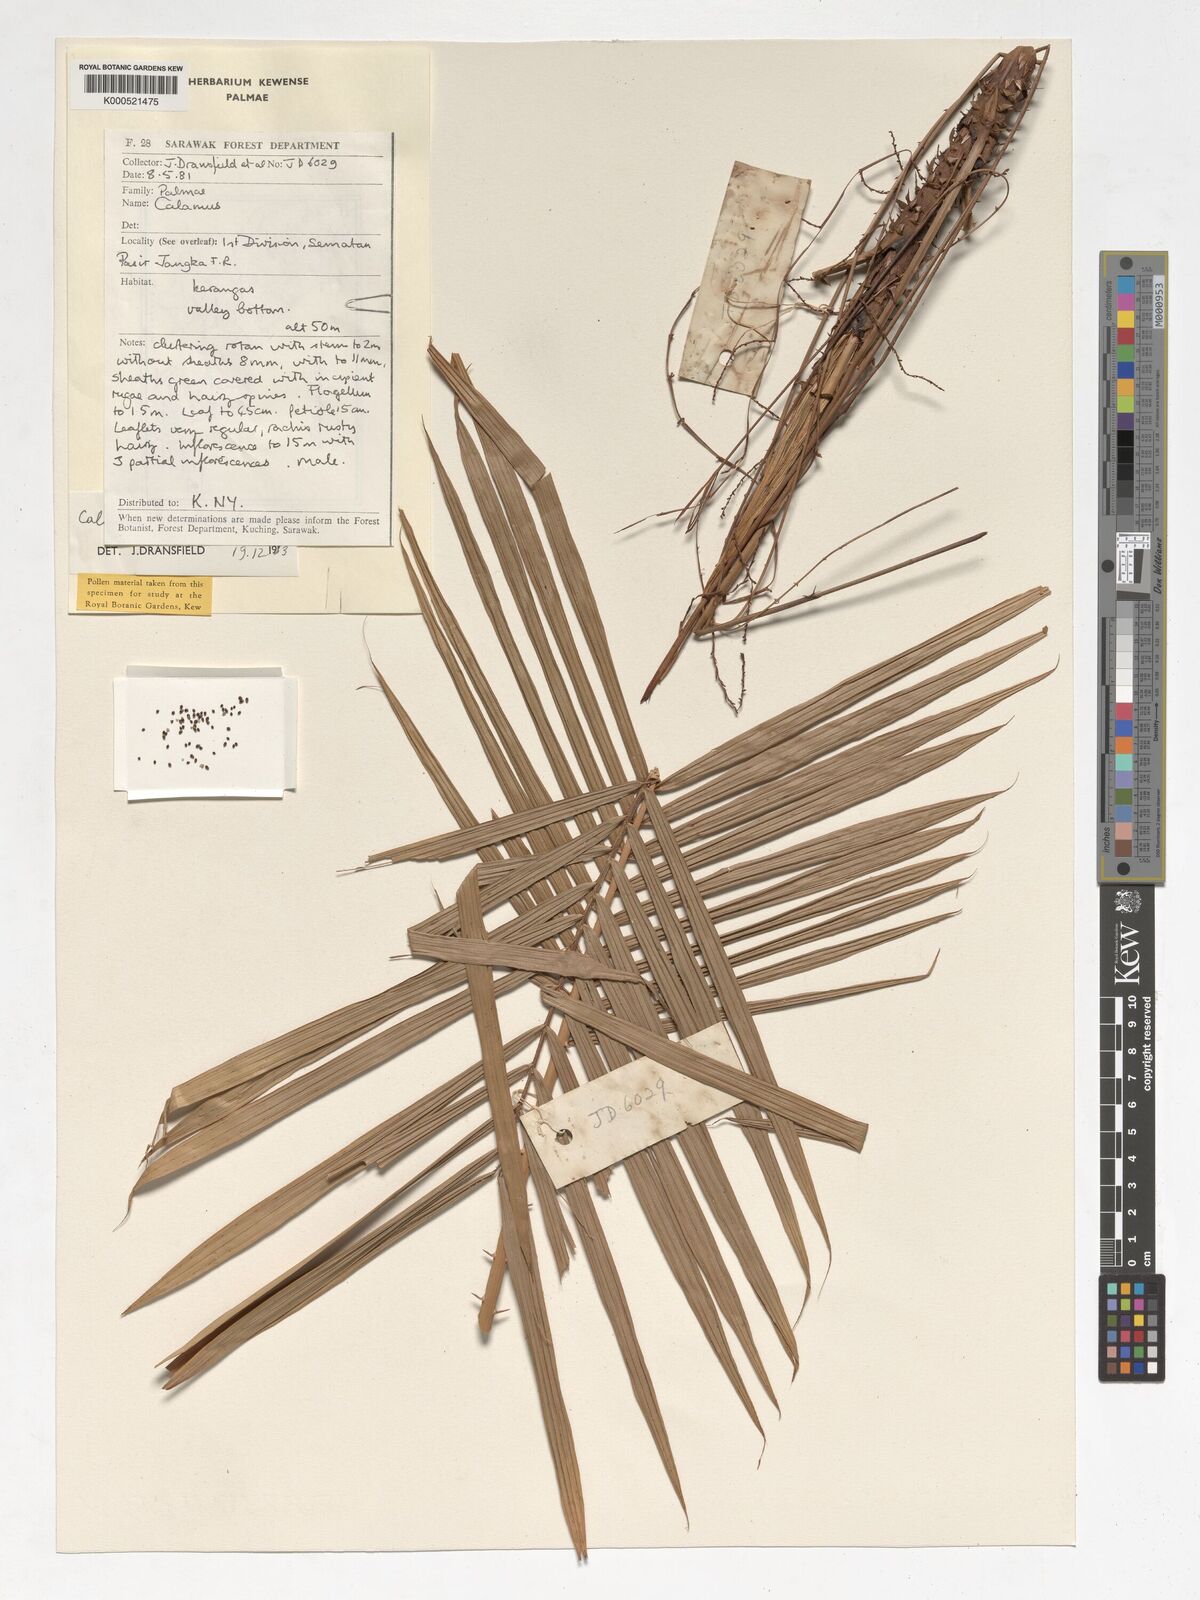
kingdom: Plantae
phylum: Tracheophyta
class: Liliopsida
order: Arecales
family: Arecaceae
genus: Calamus
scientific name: Calamus nematospadix
